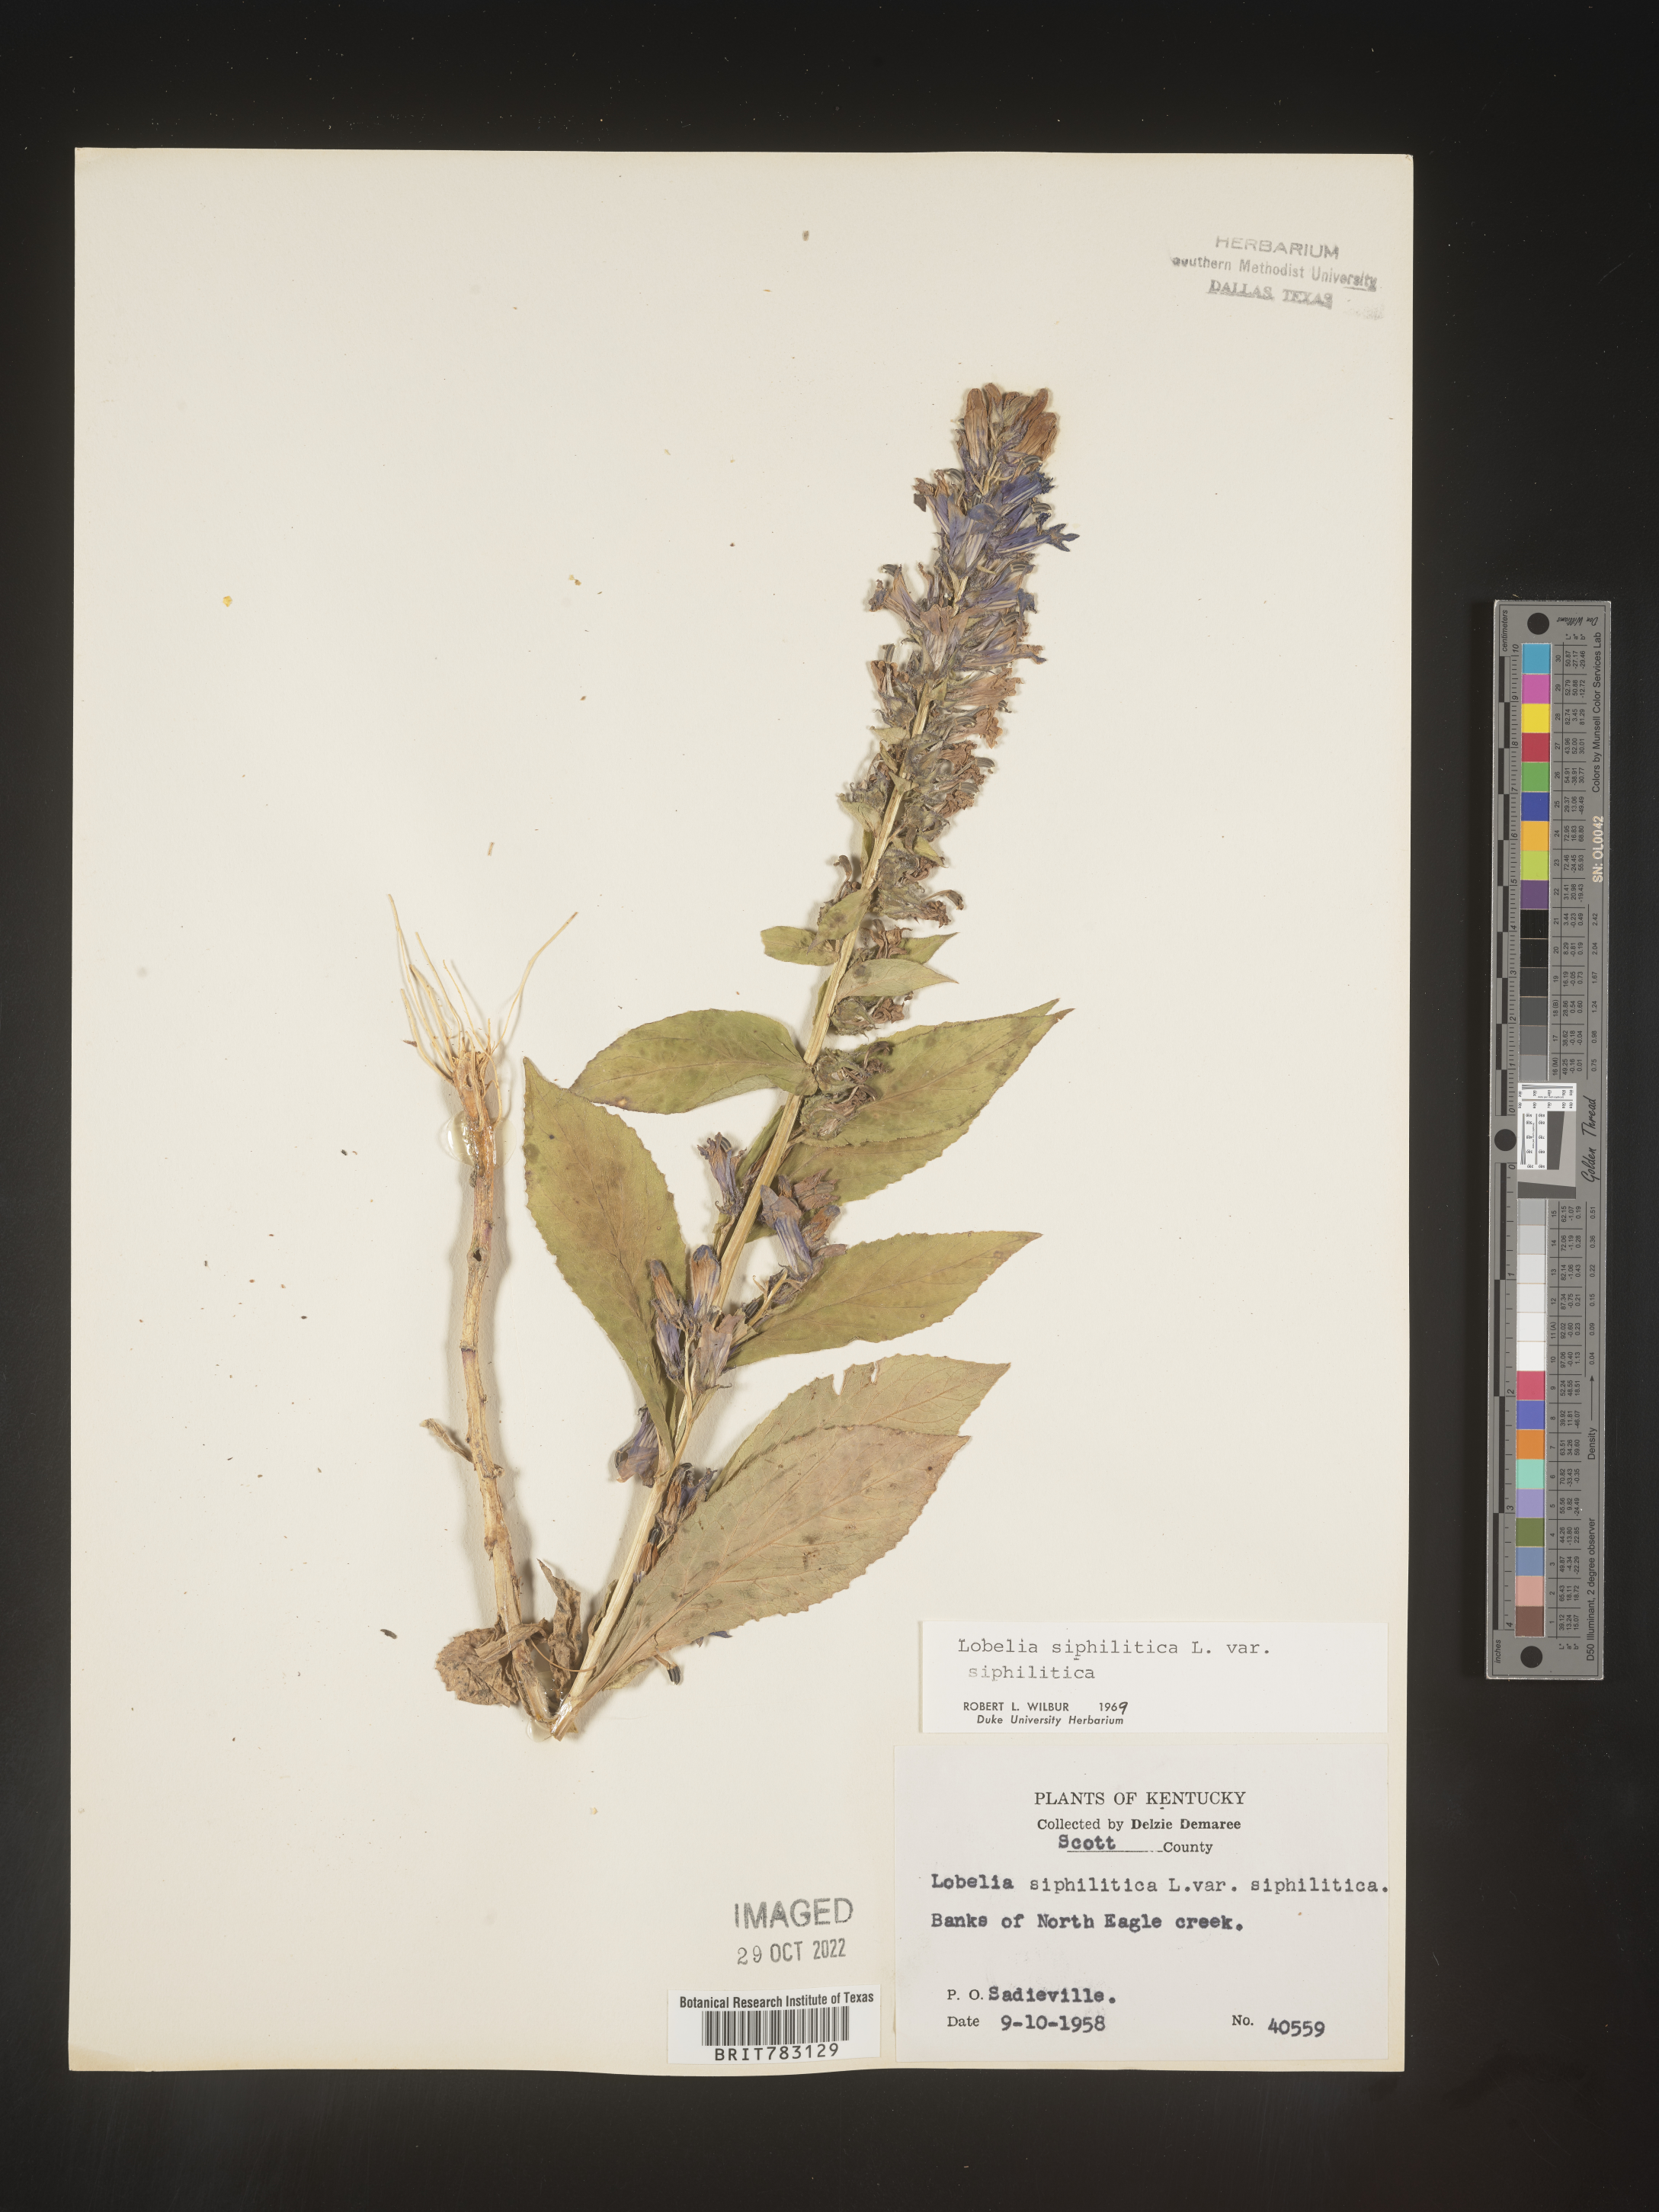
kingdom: Plantae
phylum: Tracheophyta
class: Magnoliopsida
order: Asterales
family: Campanulaceae
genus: Lobelia
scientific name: Lobelia siphilitica
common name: Great lobelia
